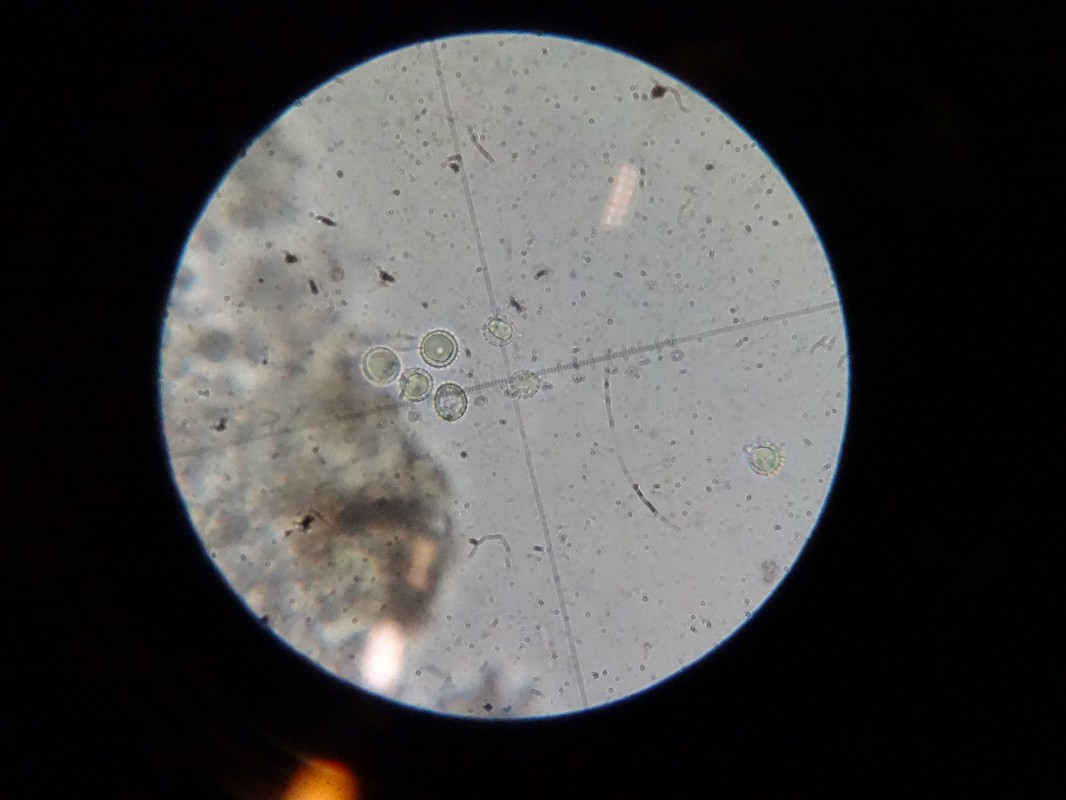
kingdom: Fungi
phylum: Basidiomycota
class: Agaricomycetes
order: Agaricales
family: Hydnangiaceae
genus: Laccaria
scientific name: Laccaria laccata
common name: rød ametysthat
